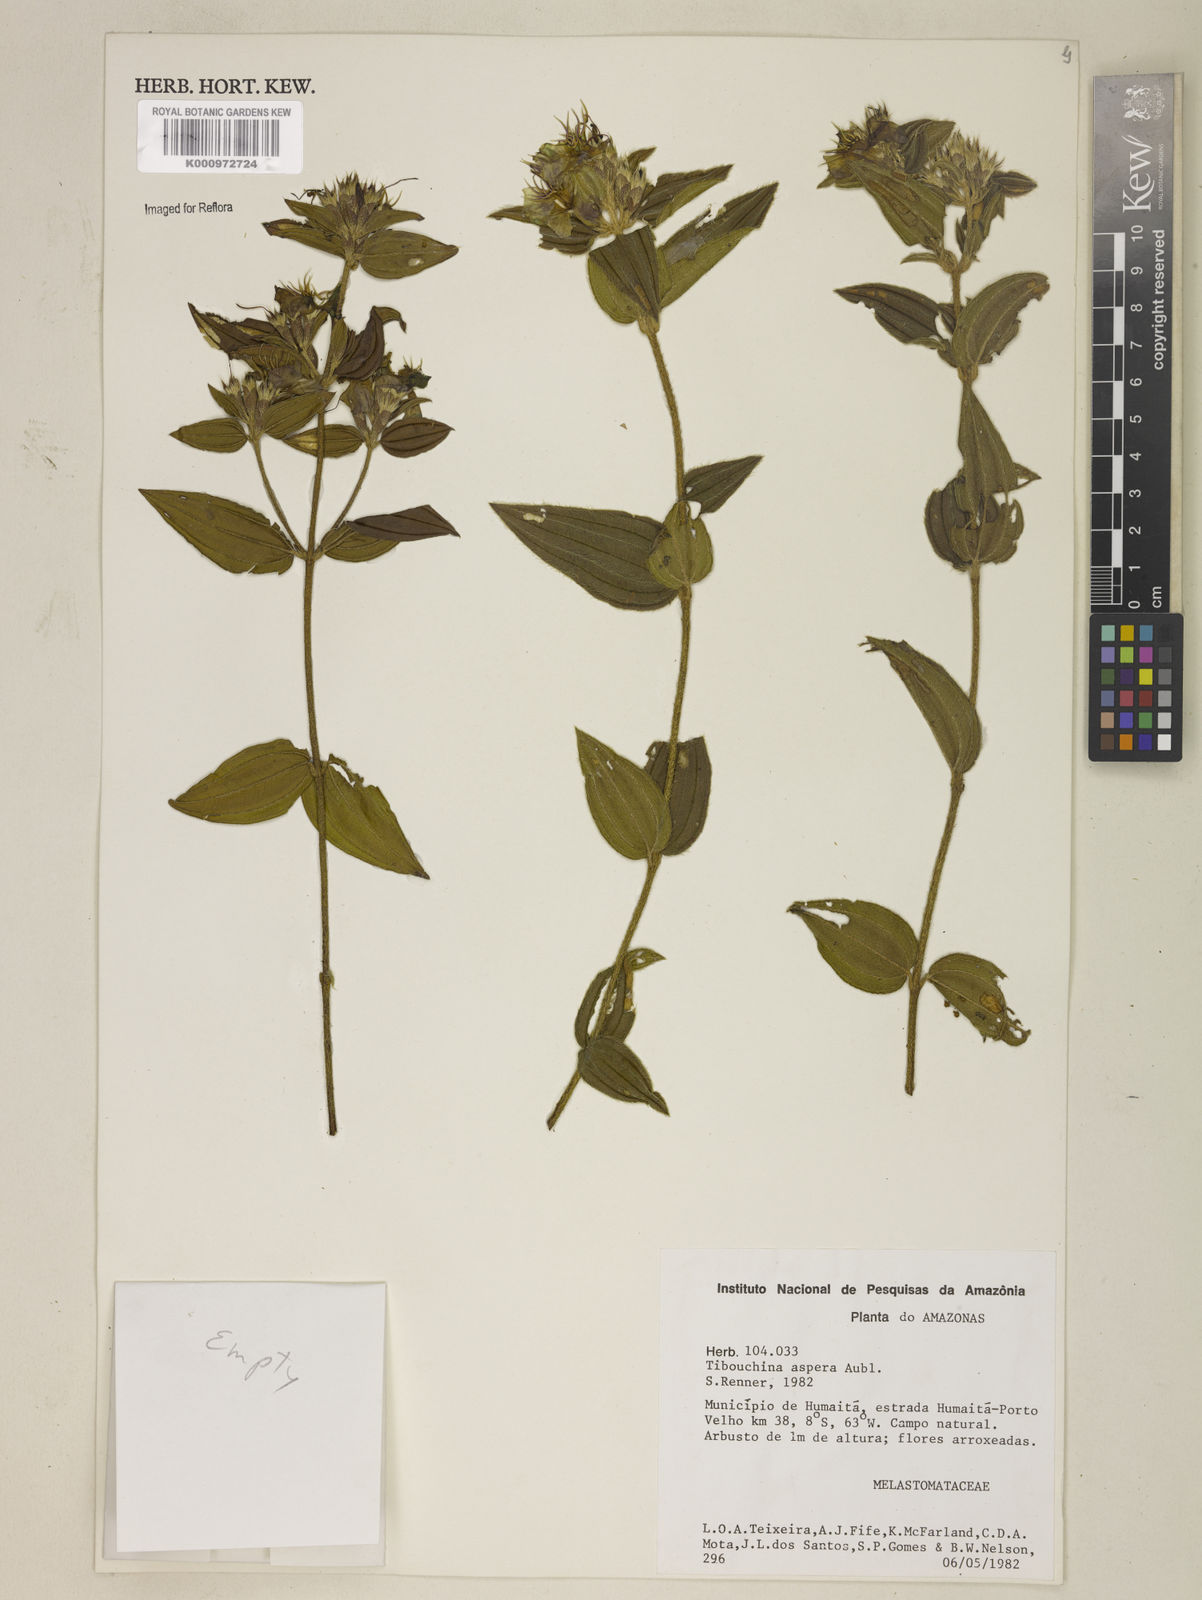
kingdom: Plantae
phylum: Tracheophyta
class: Magnoliopsida
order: Myrtales
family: Melastomataceae
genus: Tibouchina
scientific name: Tibouchina aspera
